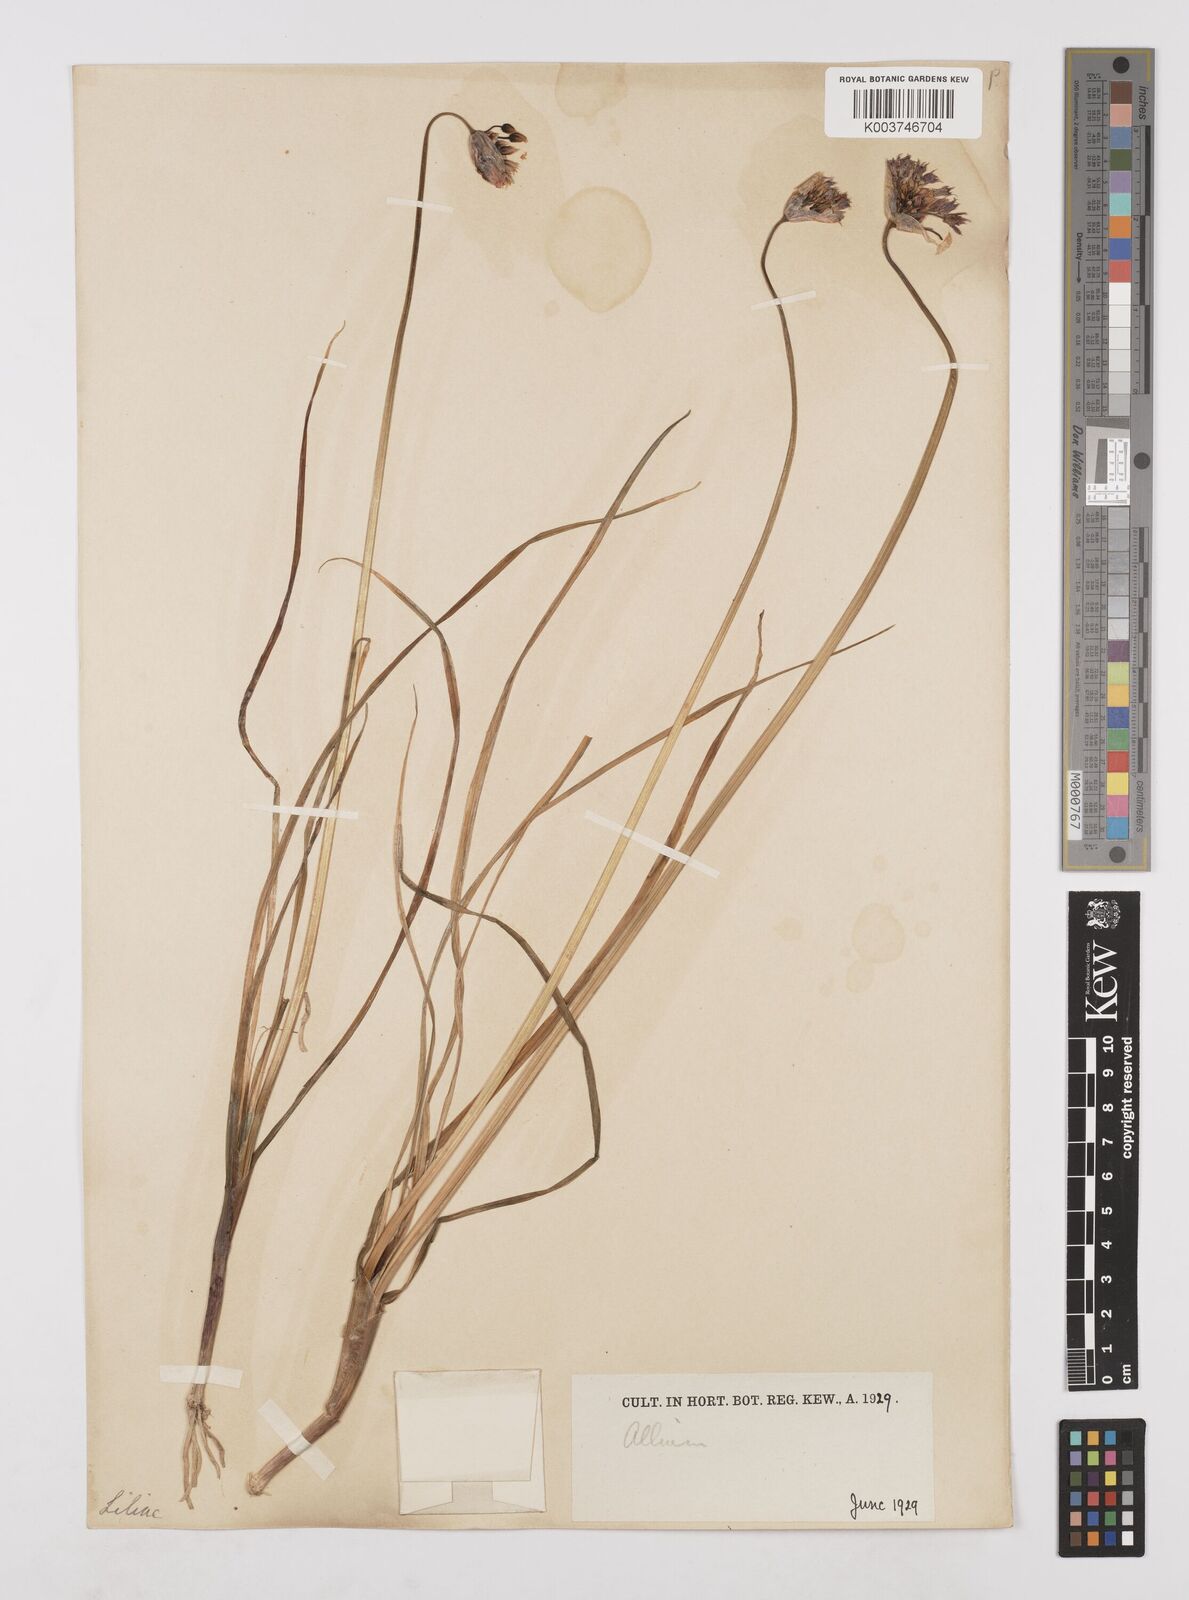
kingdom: Plantae
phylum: Tracheophyta
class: Liliopsida
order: Asparagales
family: Amaryllidaceae
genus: Allium
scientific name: Allium farreri
